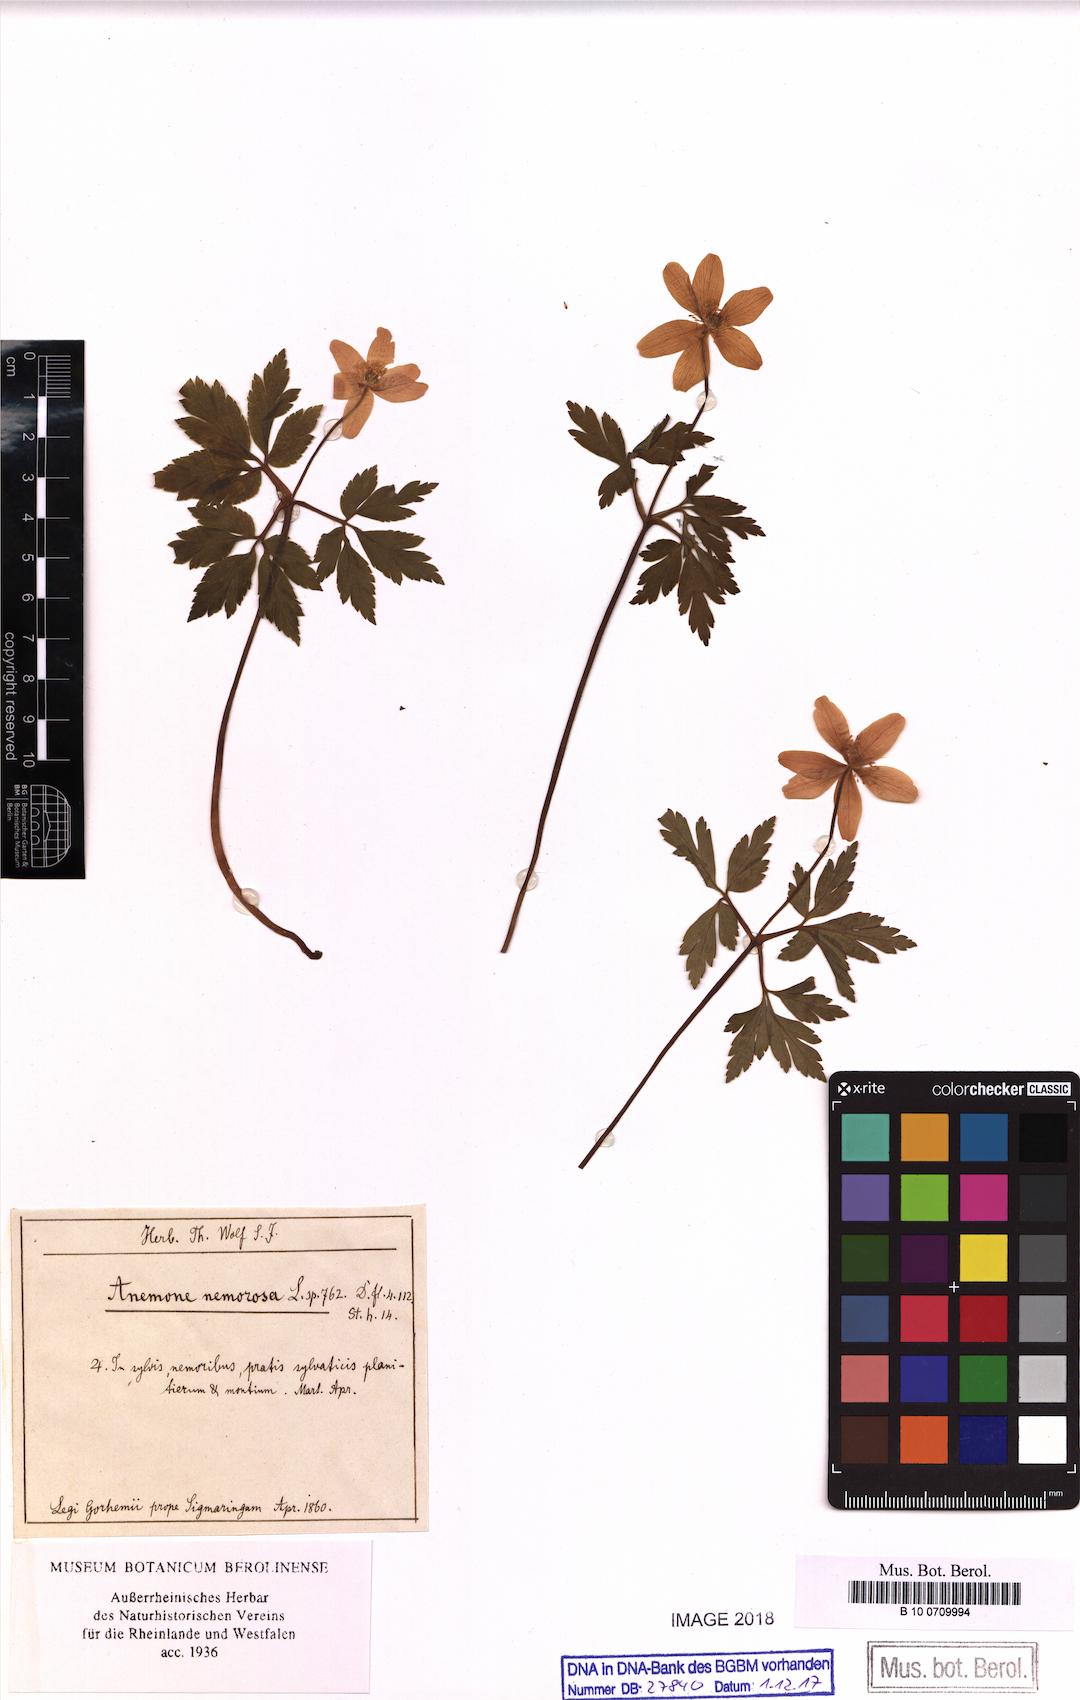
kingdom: Plantae
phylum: Tracheophyta
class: Magnoliopsida
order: Ranunculales
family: Ranunculaceae
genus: Anemone
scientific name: Anemone nemorosa
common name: Wood anemone
